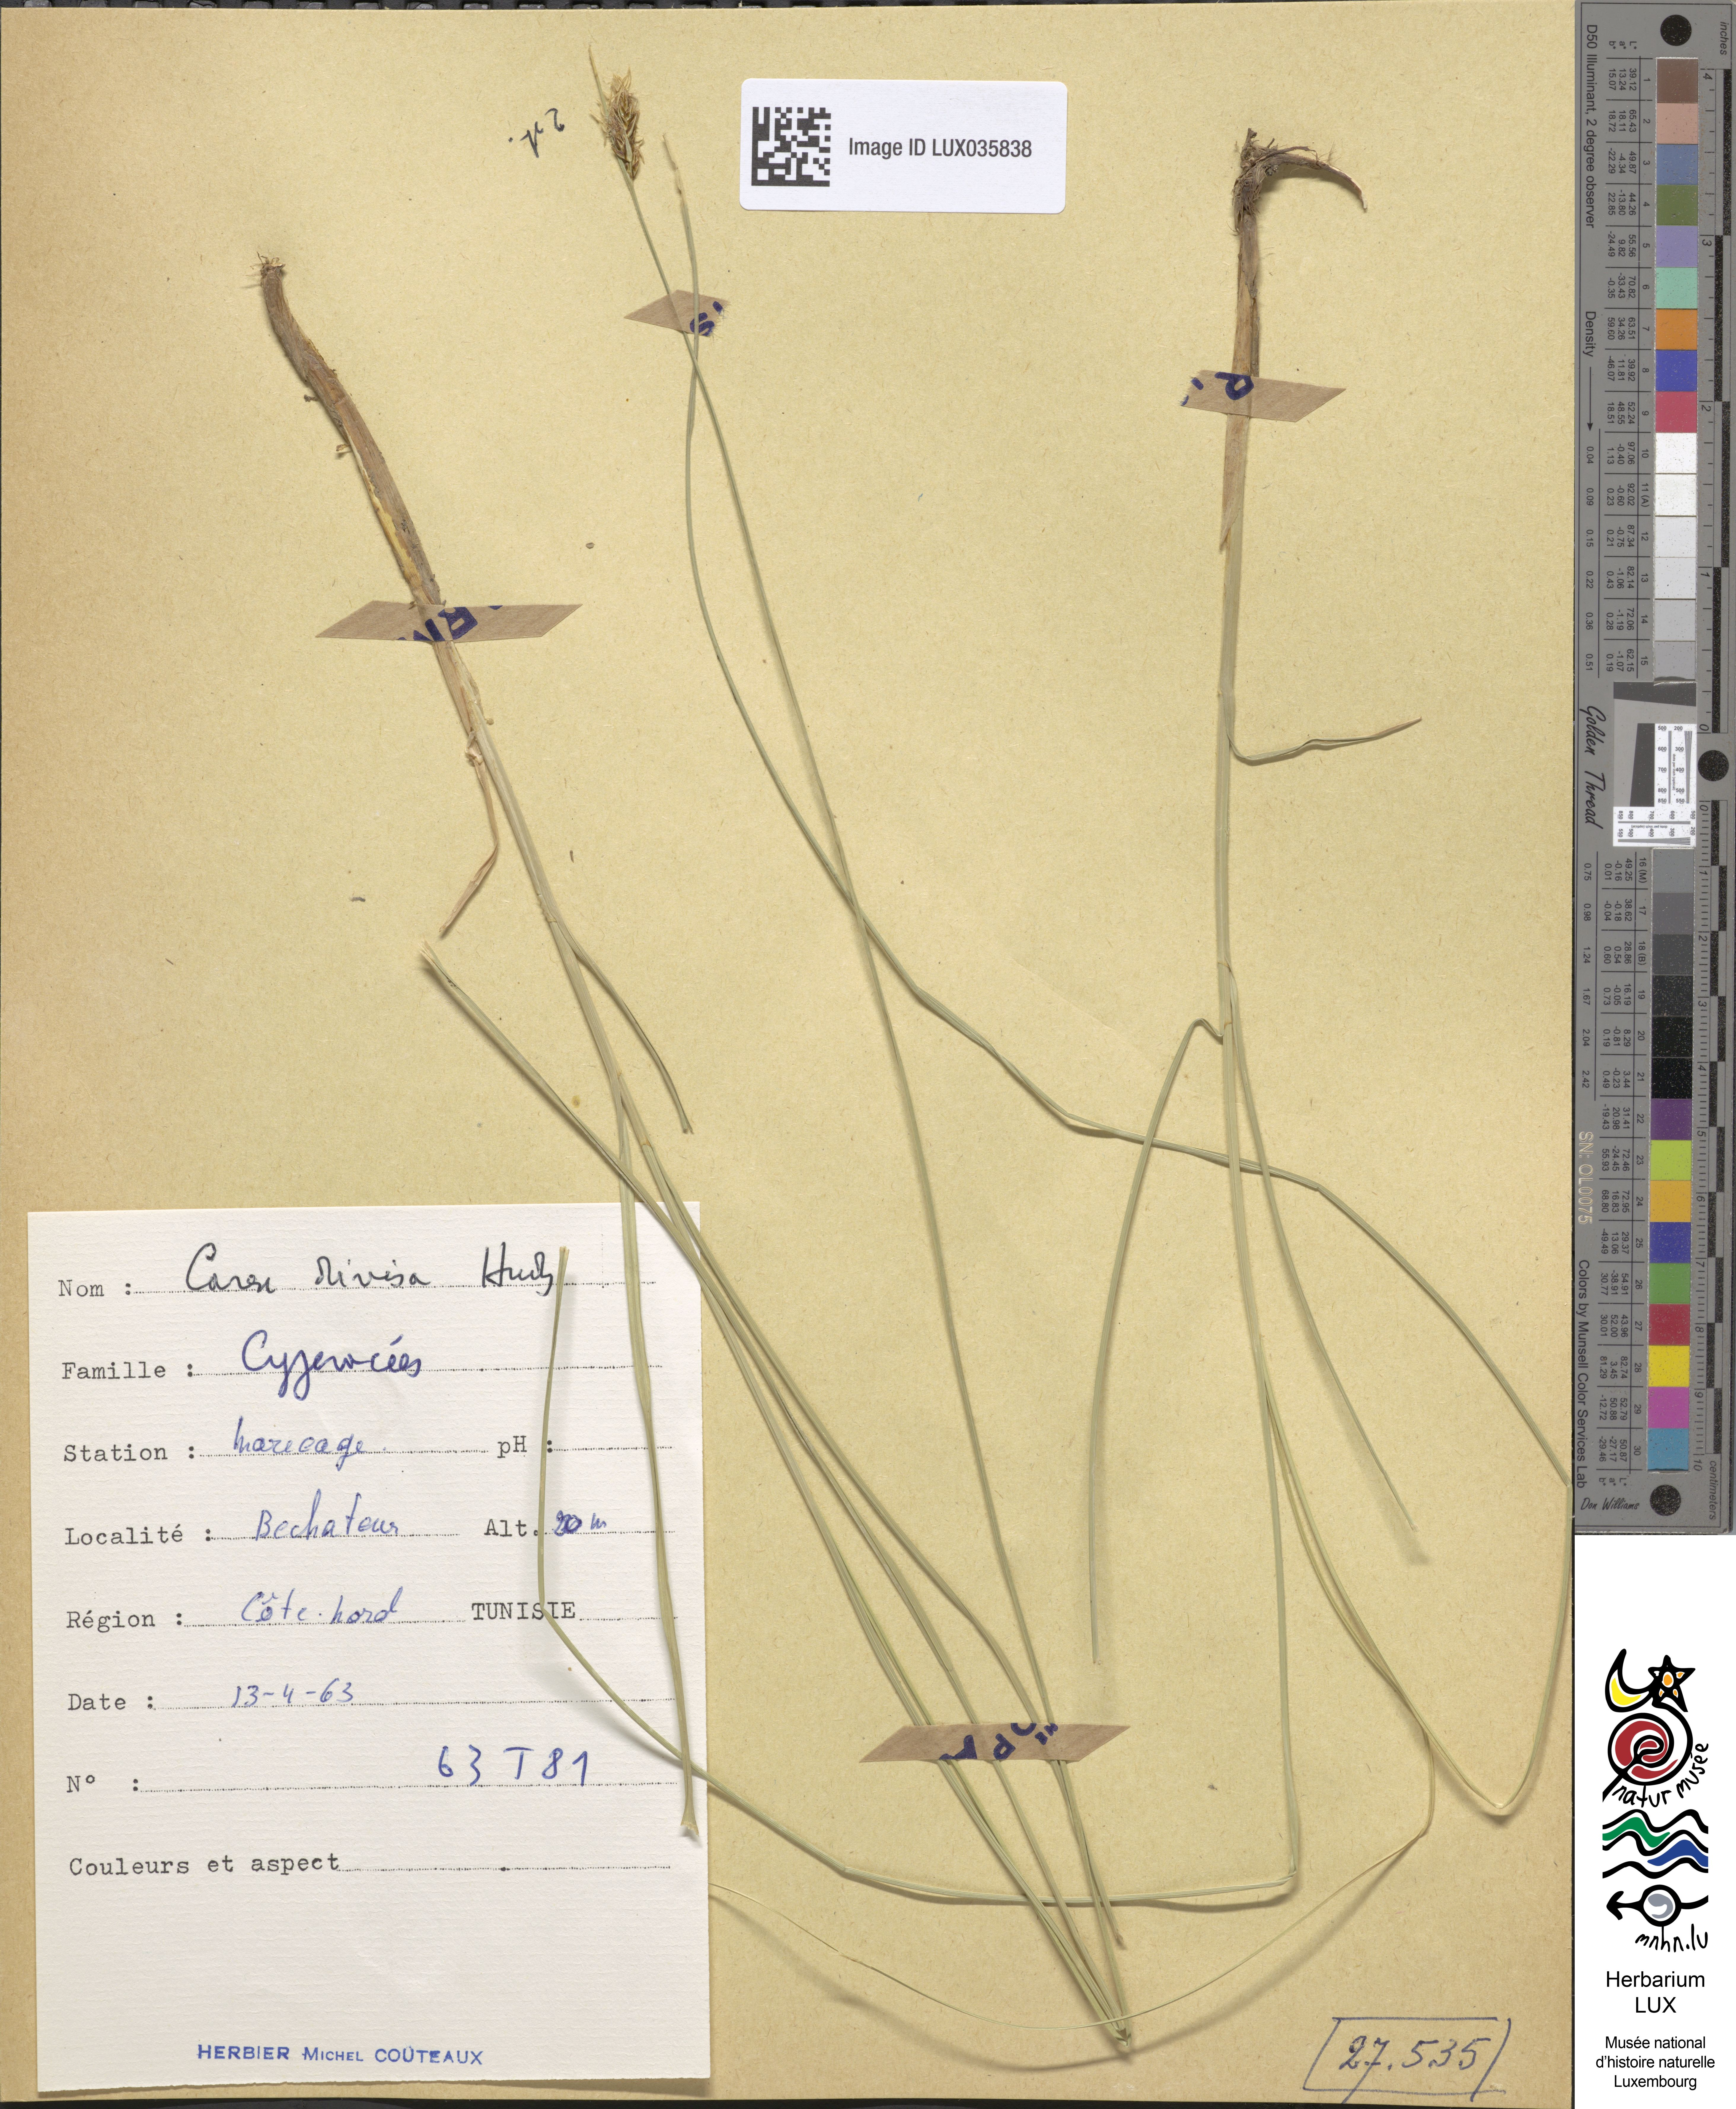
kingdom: Plantae
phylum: Tracheophyta
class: Liliopsida
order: Poales
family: Cyperaceae
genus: Carex
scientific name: Carex divisa
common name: Divided sedge
